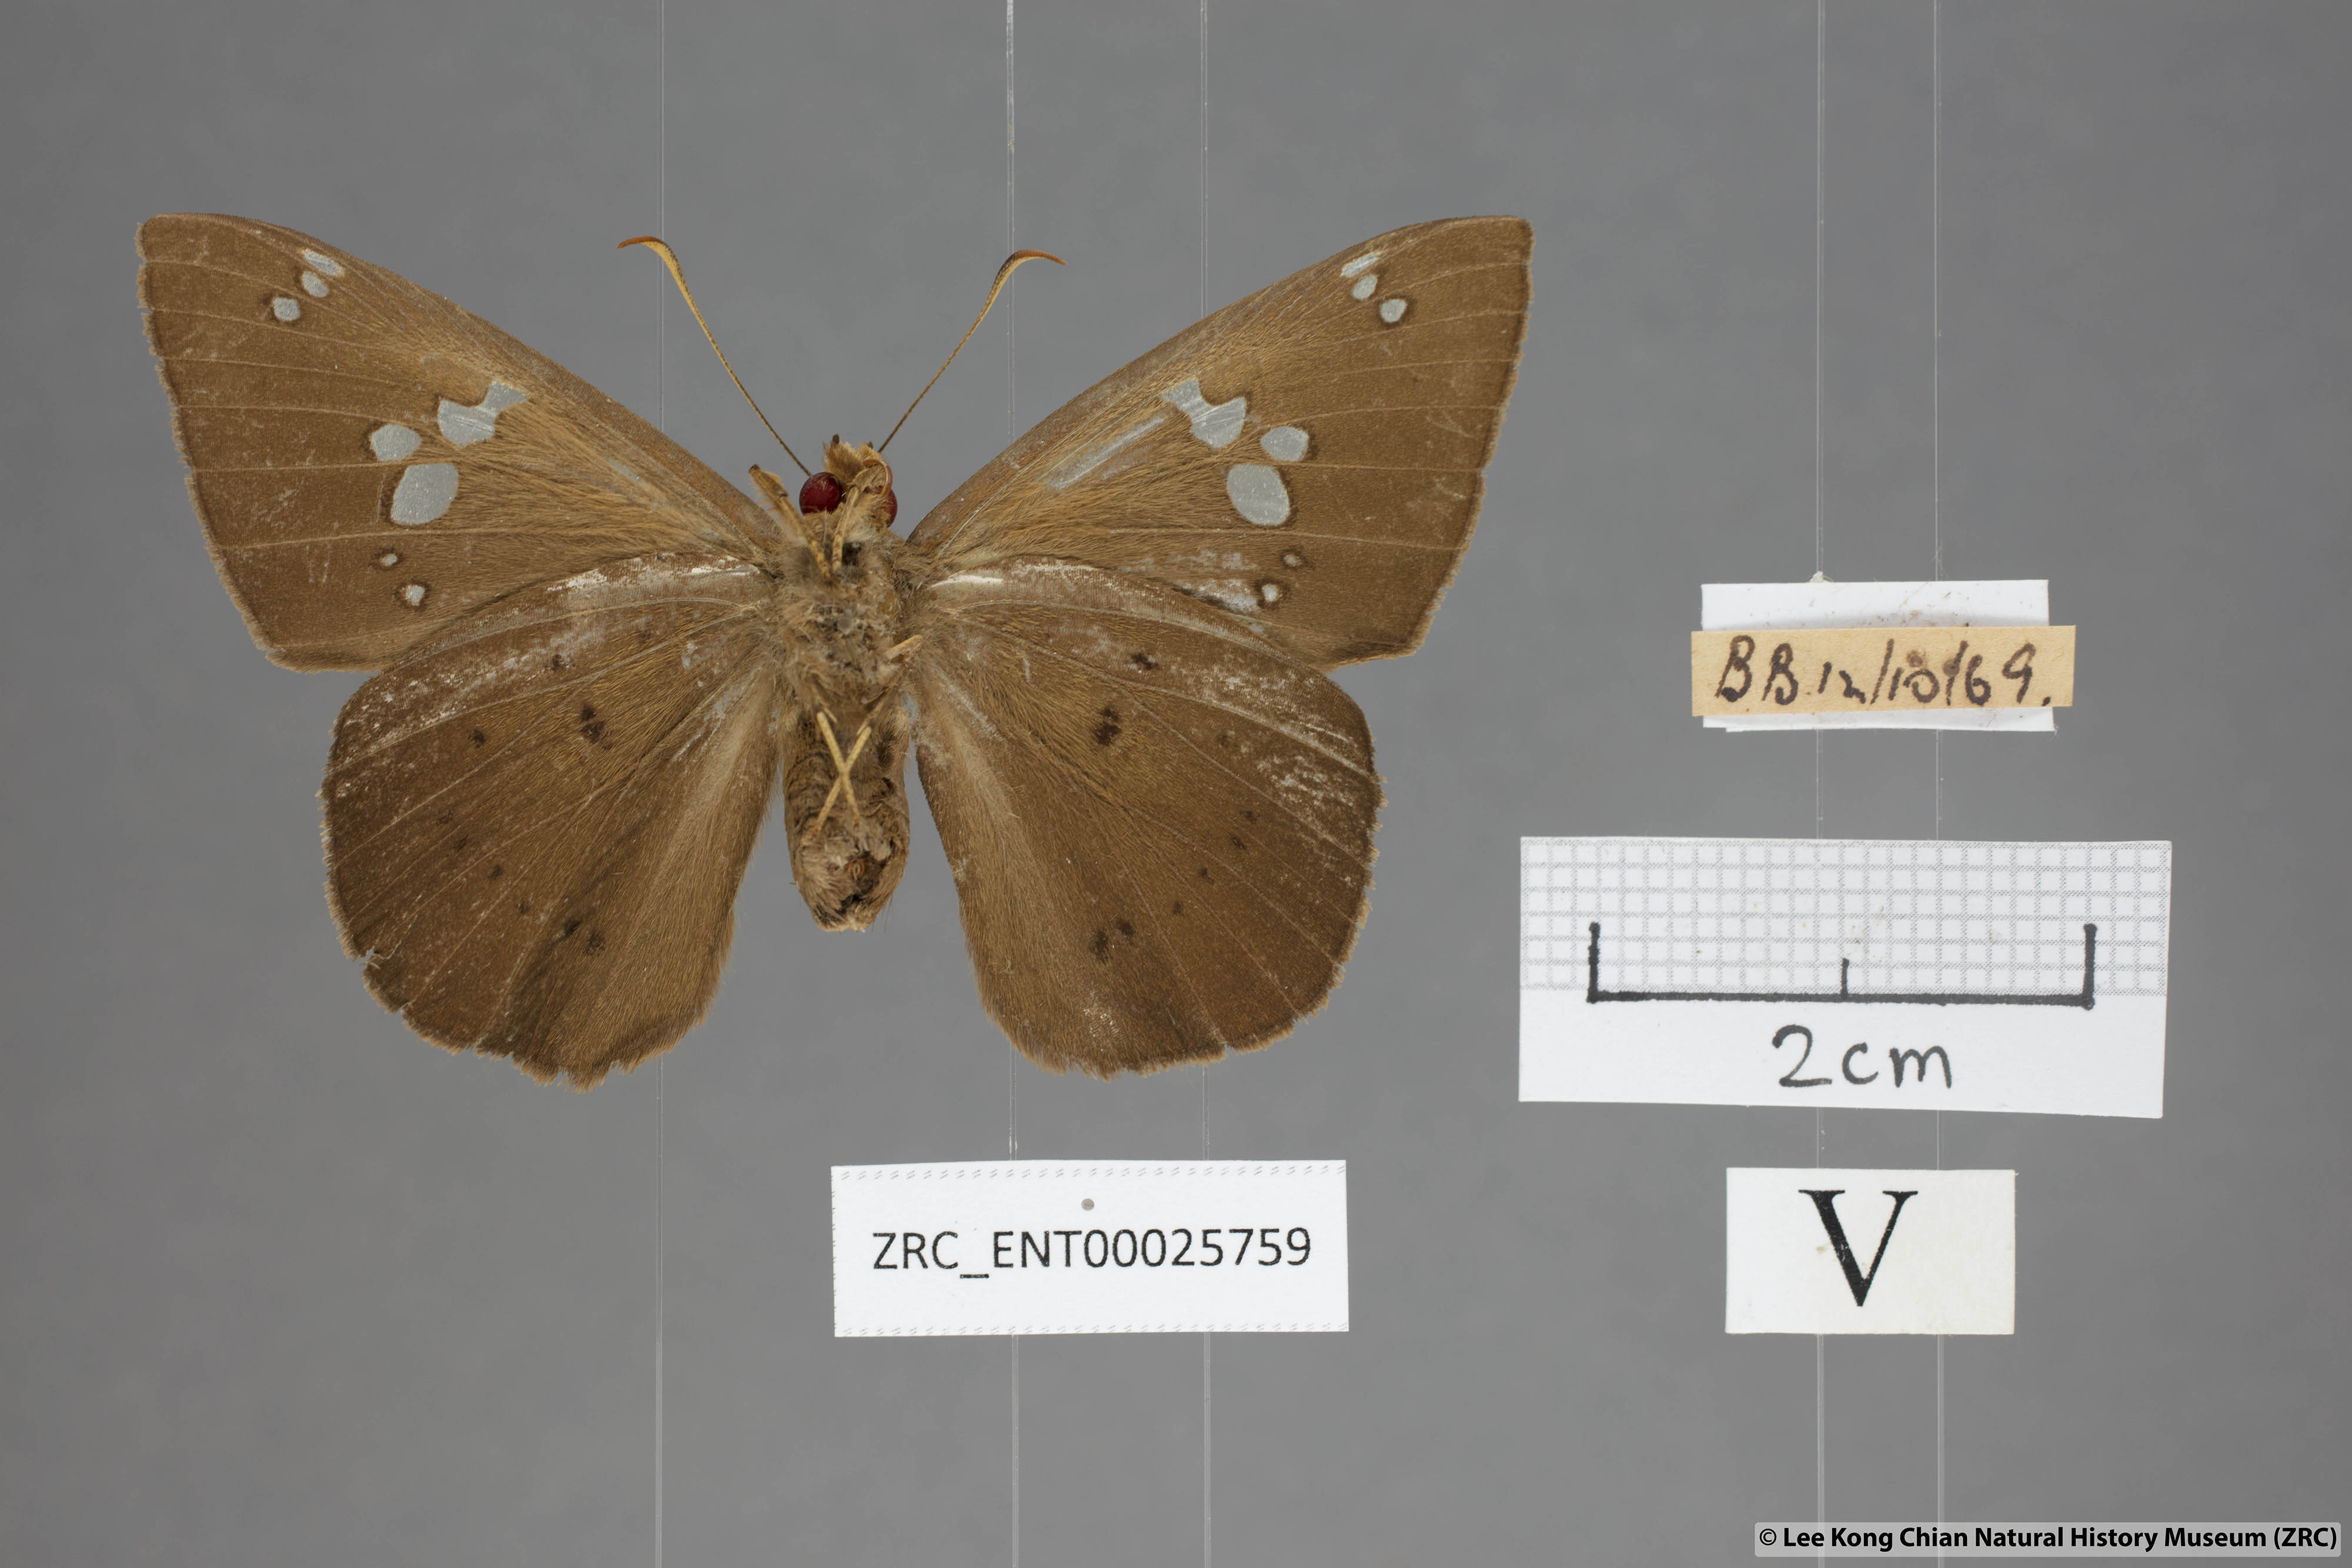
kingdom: Animalia
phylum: Arthropoda
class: Insecta
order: Lepidoptera
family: Hesperiidae
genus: Capila
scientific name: Capila phanaeus
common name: Fulvous dawnfly
